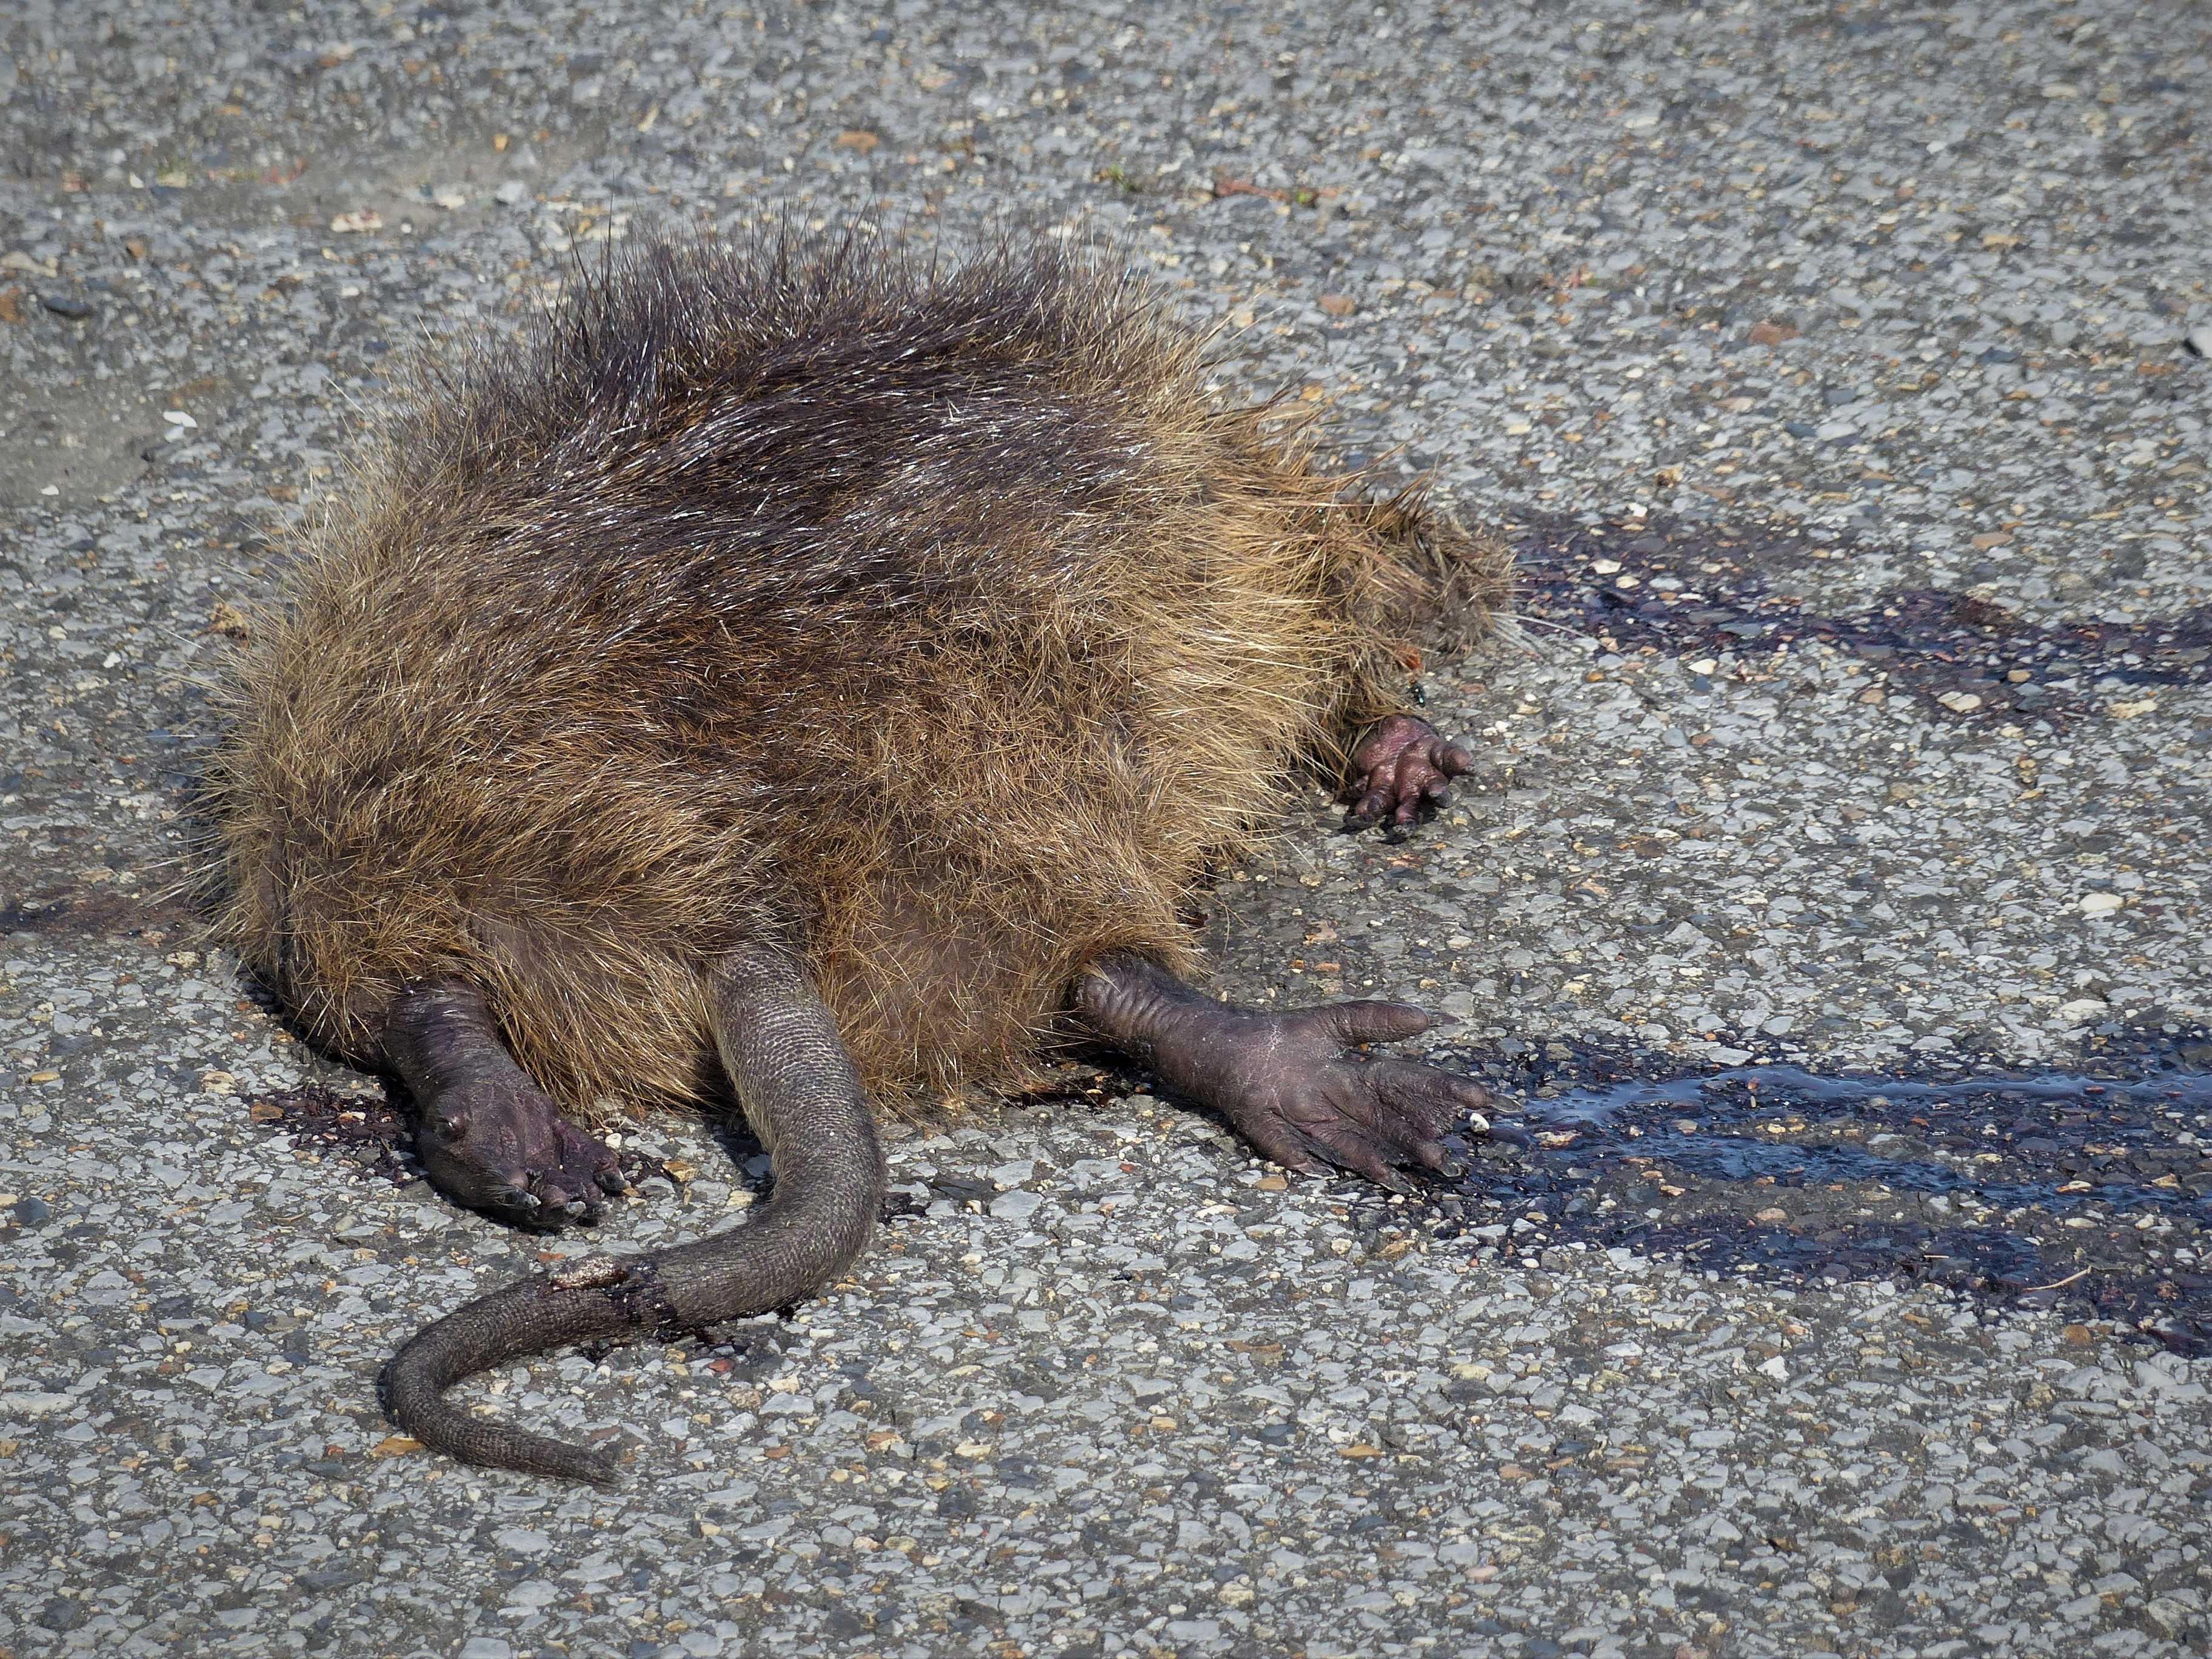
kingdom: Animalia
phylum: Chordata
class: Mammalia
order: Rodentia
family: Myocastoridae
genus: Myocastor
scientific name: Myocastor coypus
